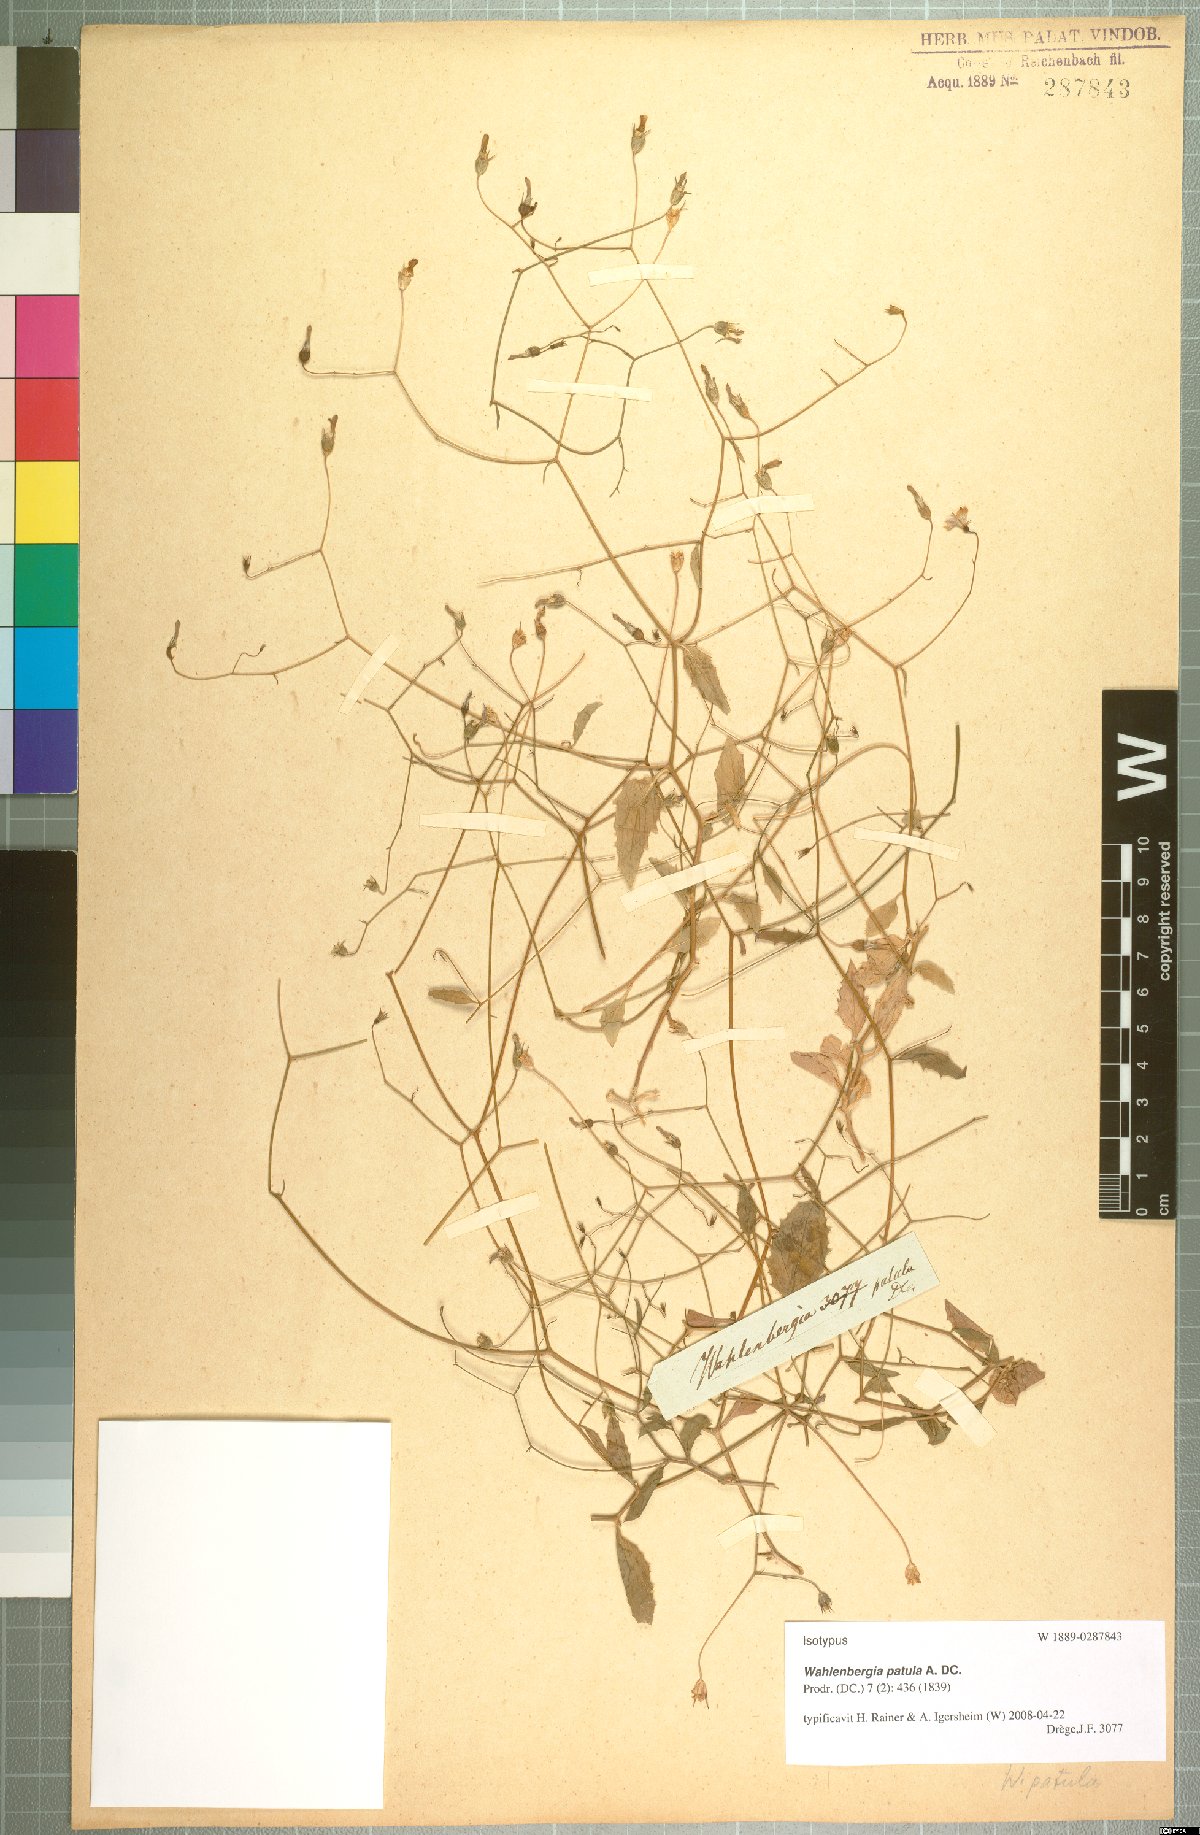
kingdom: Plantae
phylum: Tracheophyta
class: Magnoliopsida
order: Asterales
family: Campanulaceae
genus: Wahlenbergia
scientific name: Wahlenbergia patula
